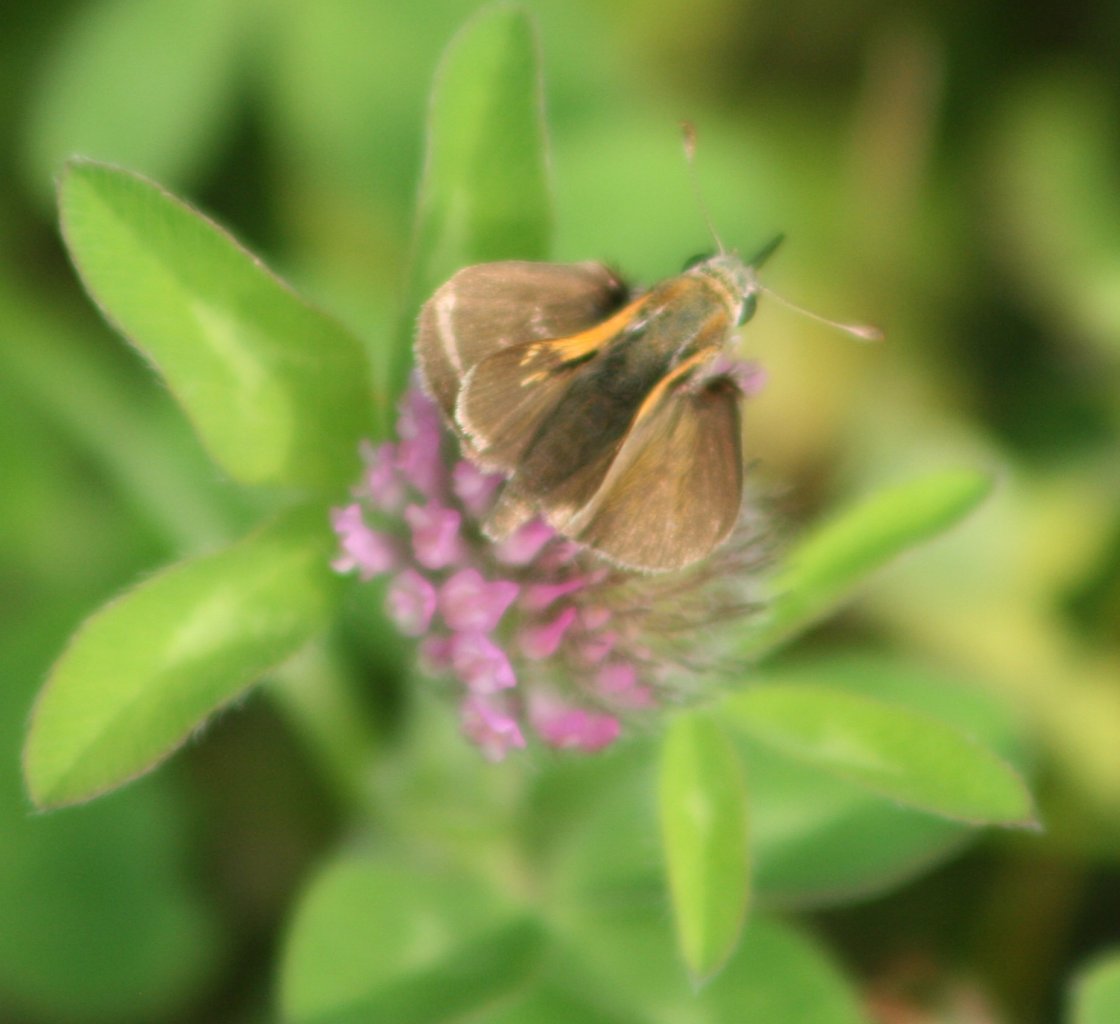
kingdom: Animalia
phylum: Arthropoda
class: Insecta
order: Lepidoptera
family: Hesperiidae
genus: Polites
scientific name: Polites themistocles
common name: Tawny-edged Skipper
